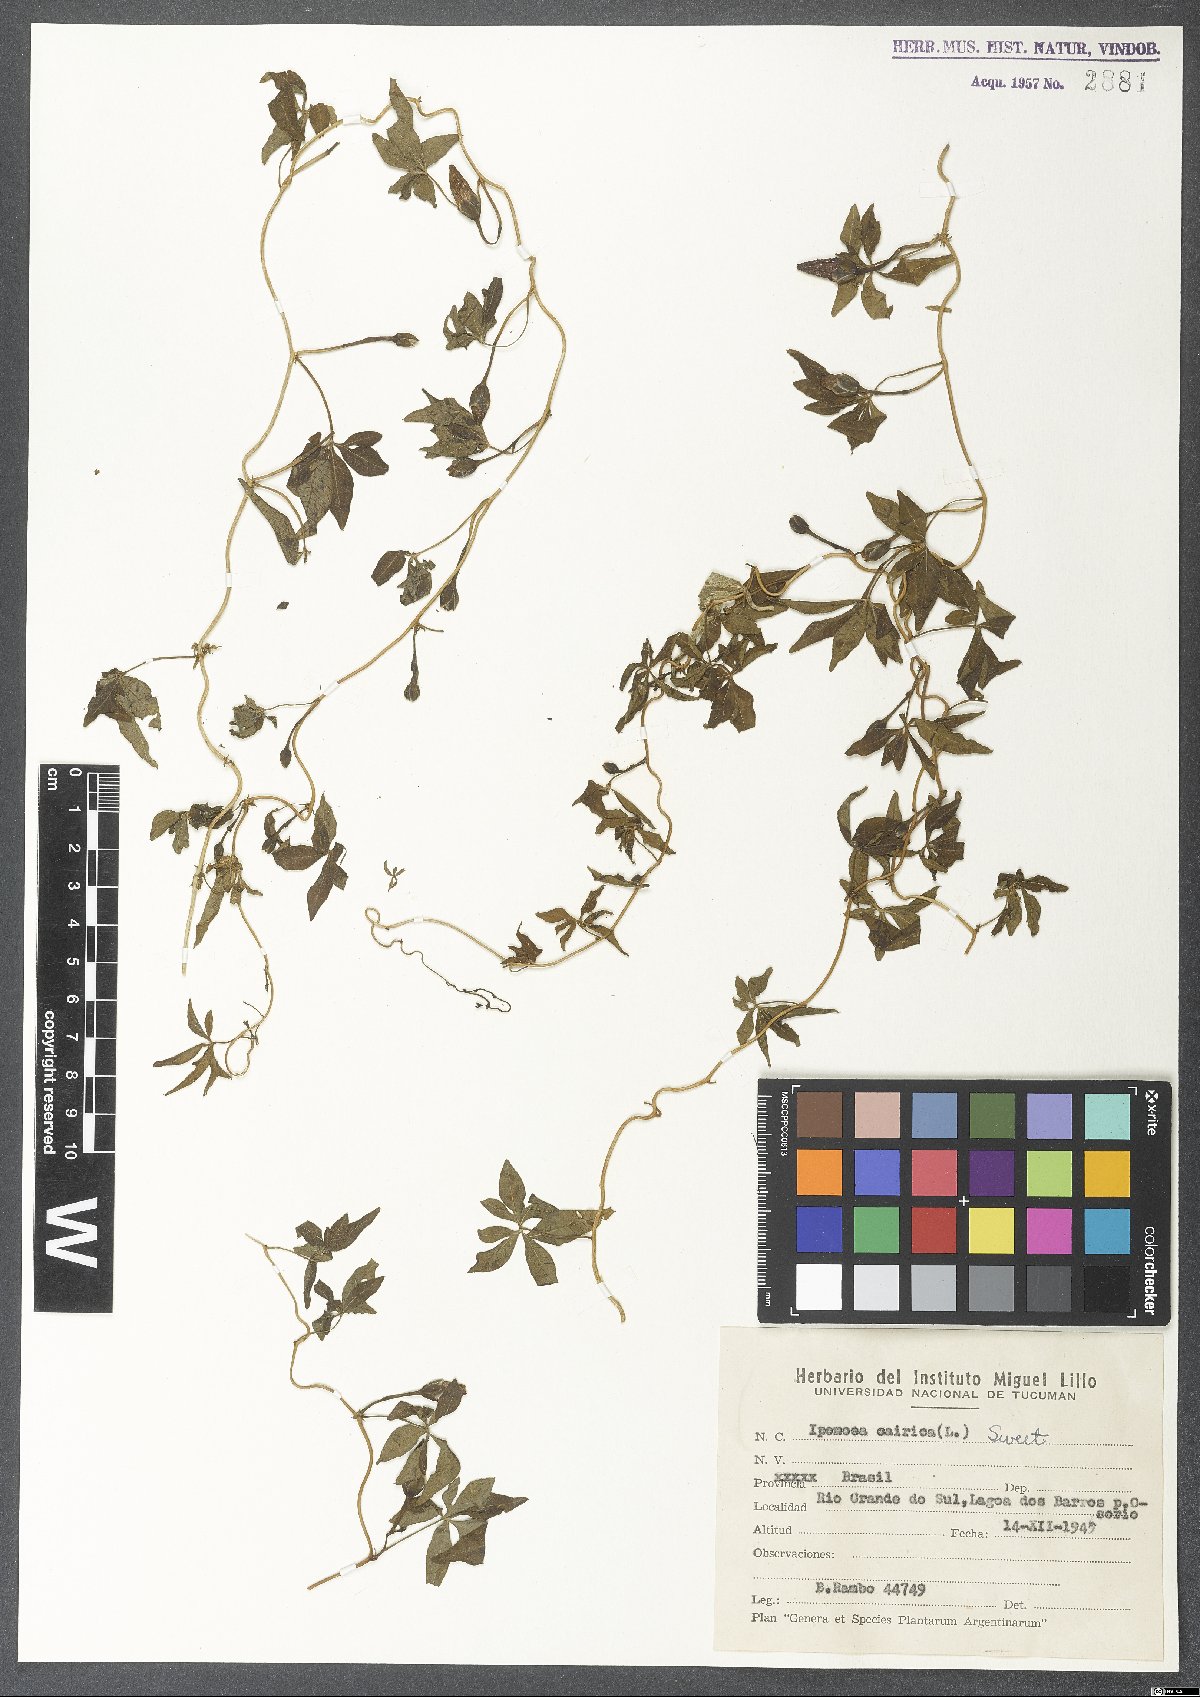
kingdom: Plantae
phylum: Tracheophyta
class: Magnoliopsida
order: Solanales
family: Convolvulaceae
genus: Ipomoea
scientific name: Ipomoea cairica
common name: Mile a minute vine
